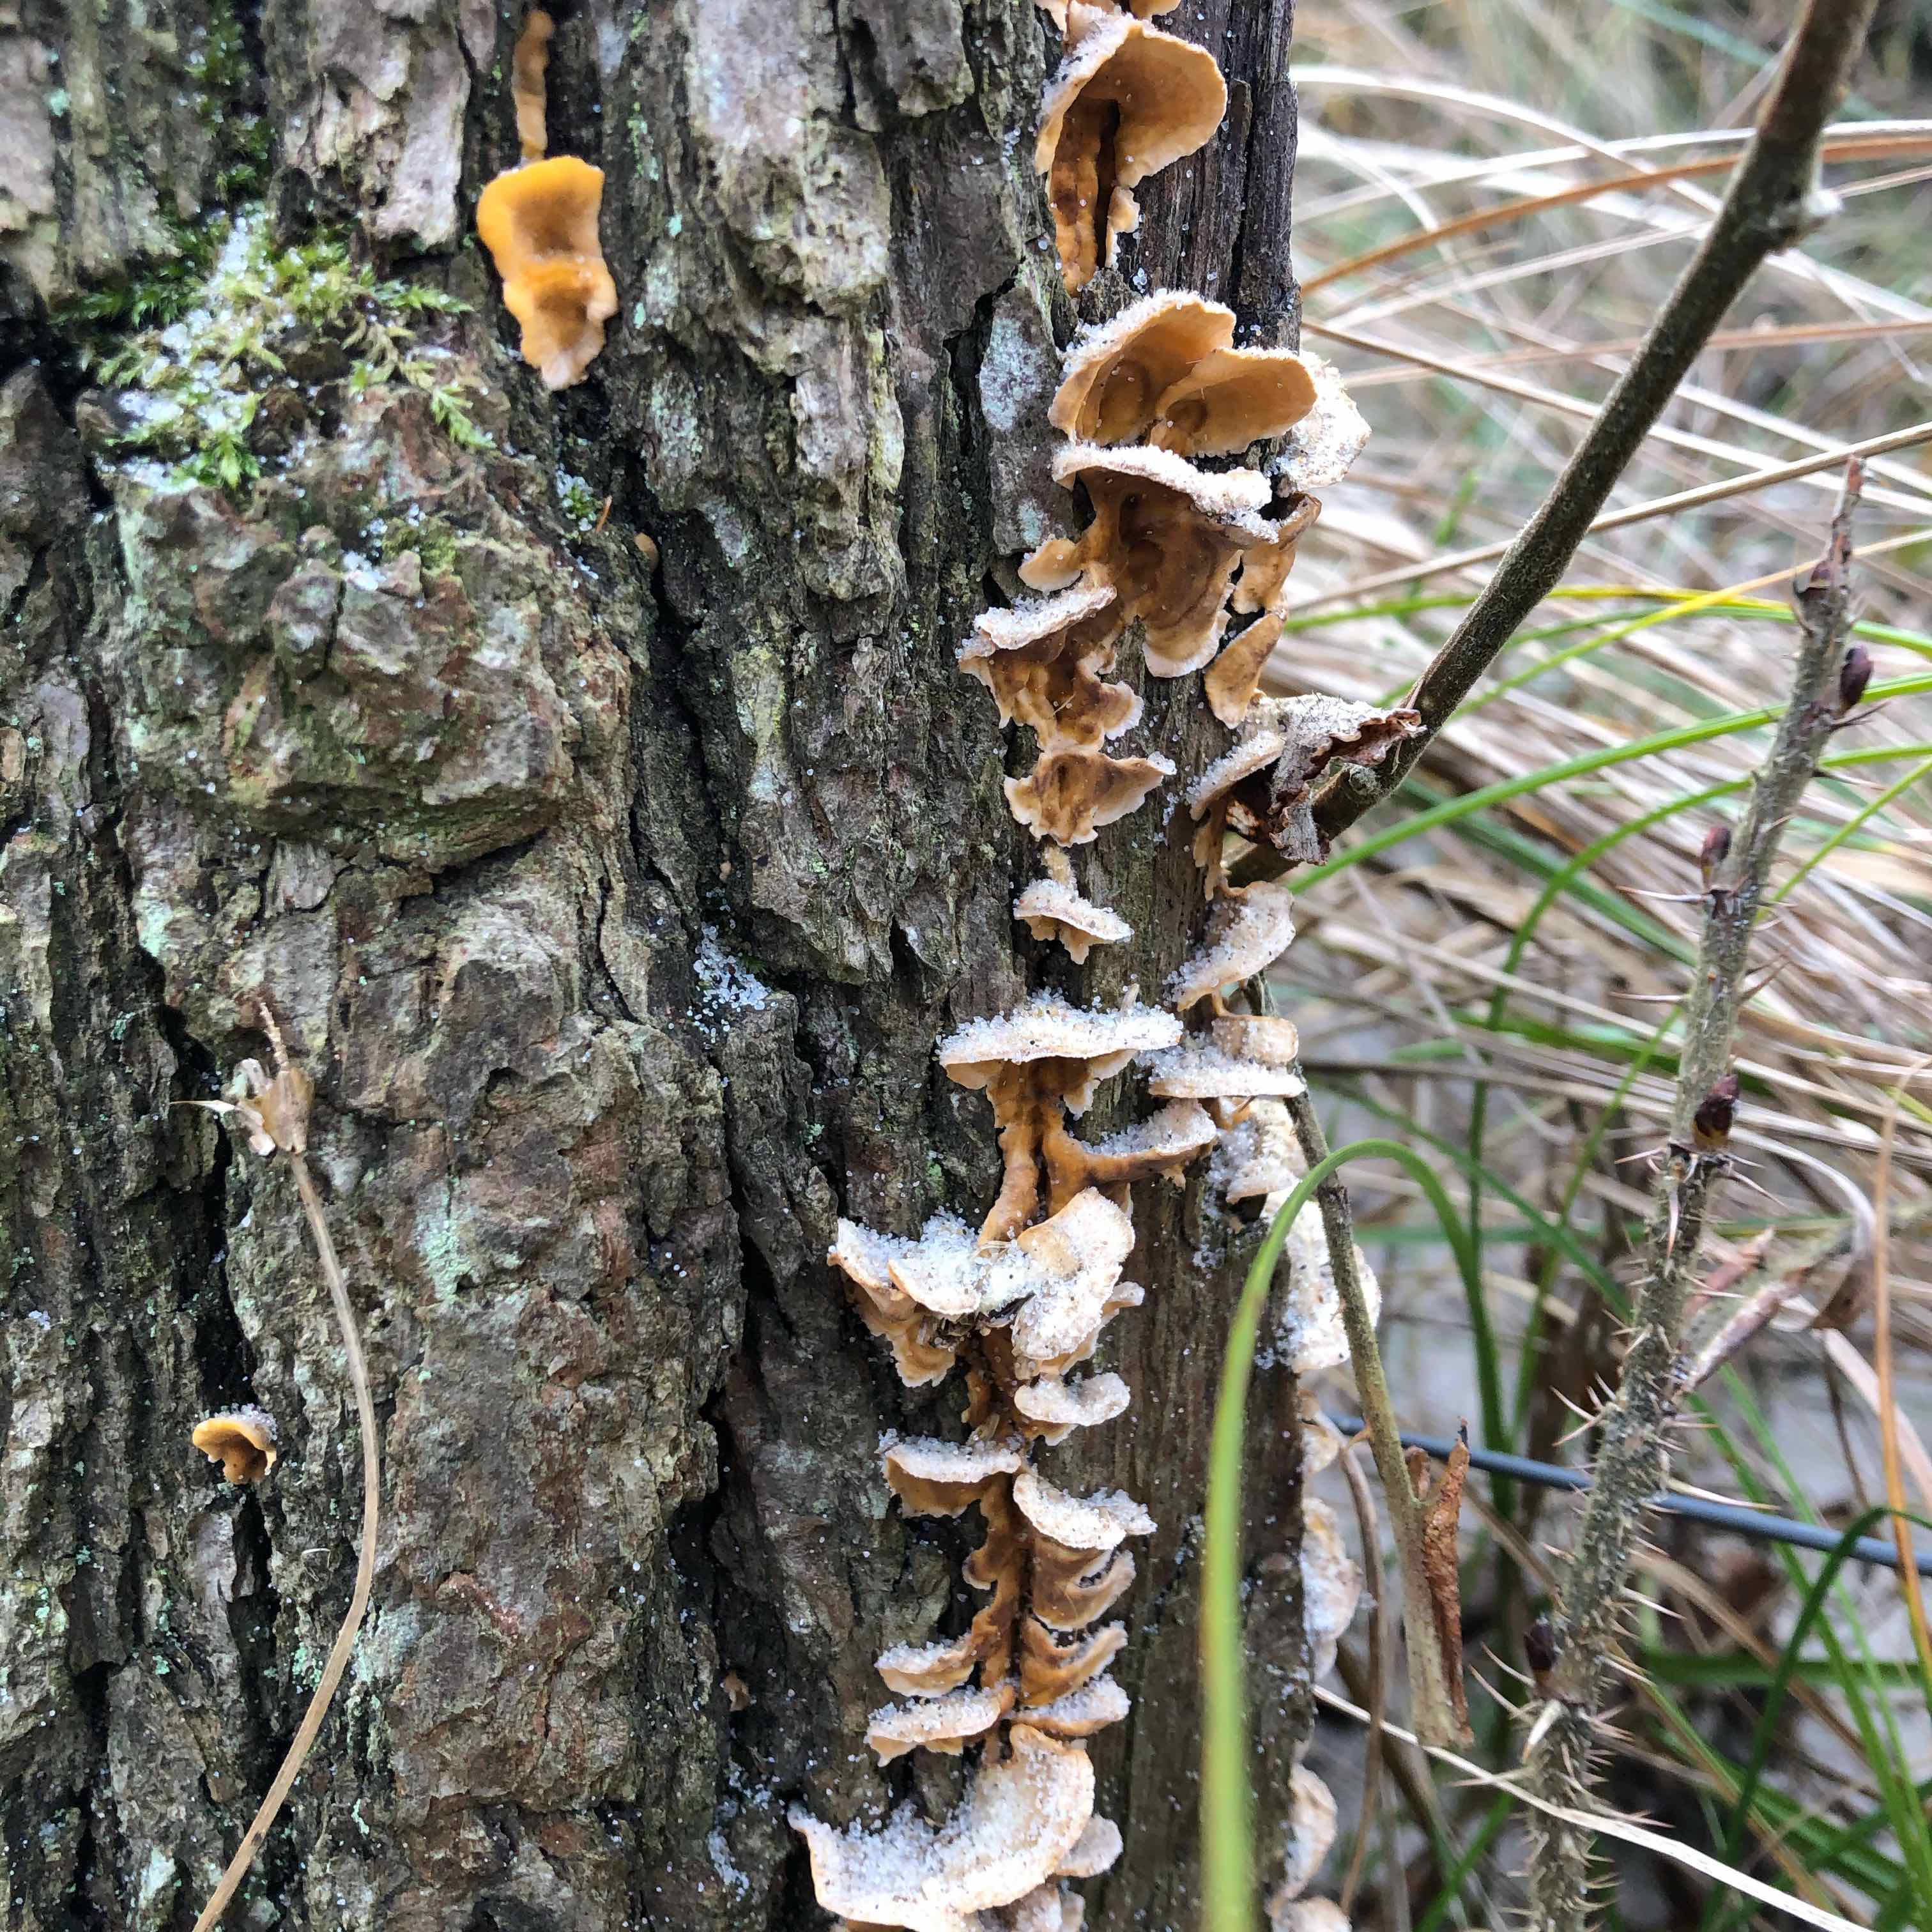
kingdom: Fungi
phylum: Basidiomycota
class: Agaricomycetes
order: Russulales
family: Stereaceae
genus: Stereum
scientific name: Stereum hirsutum
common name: håret lædersvamp
